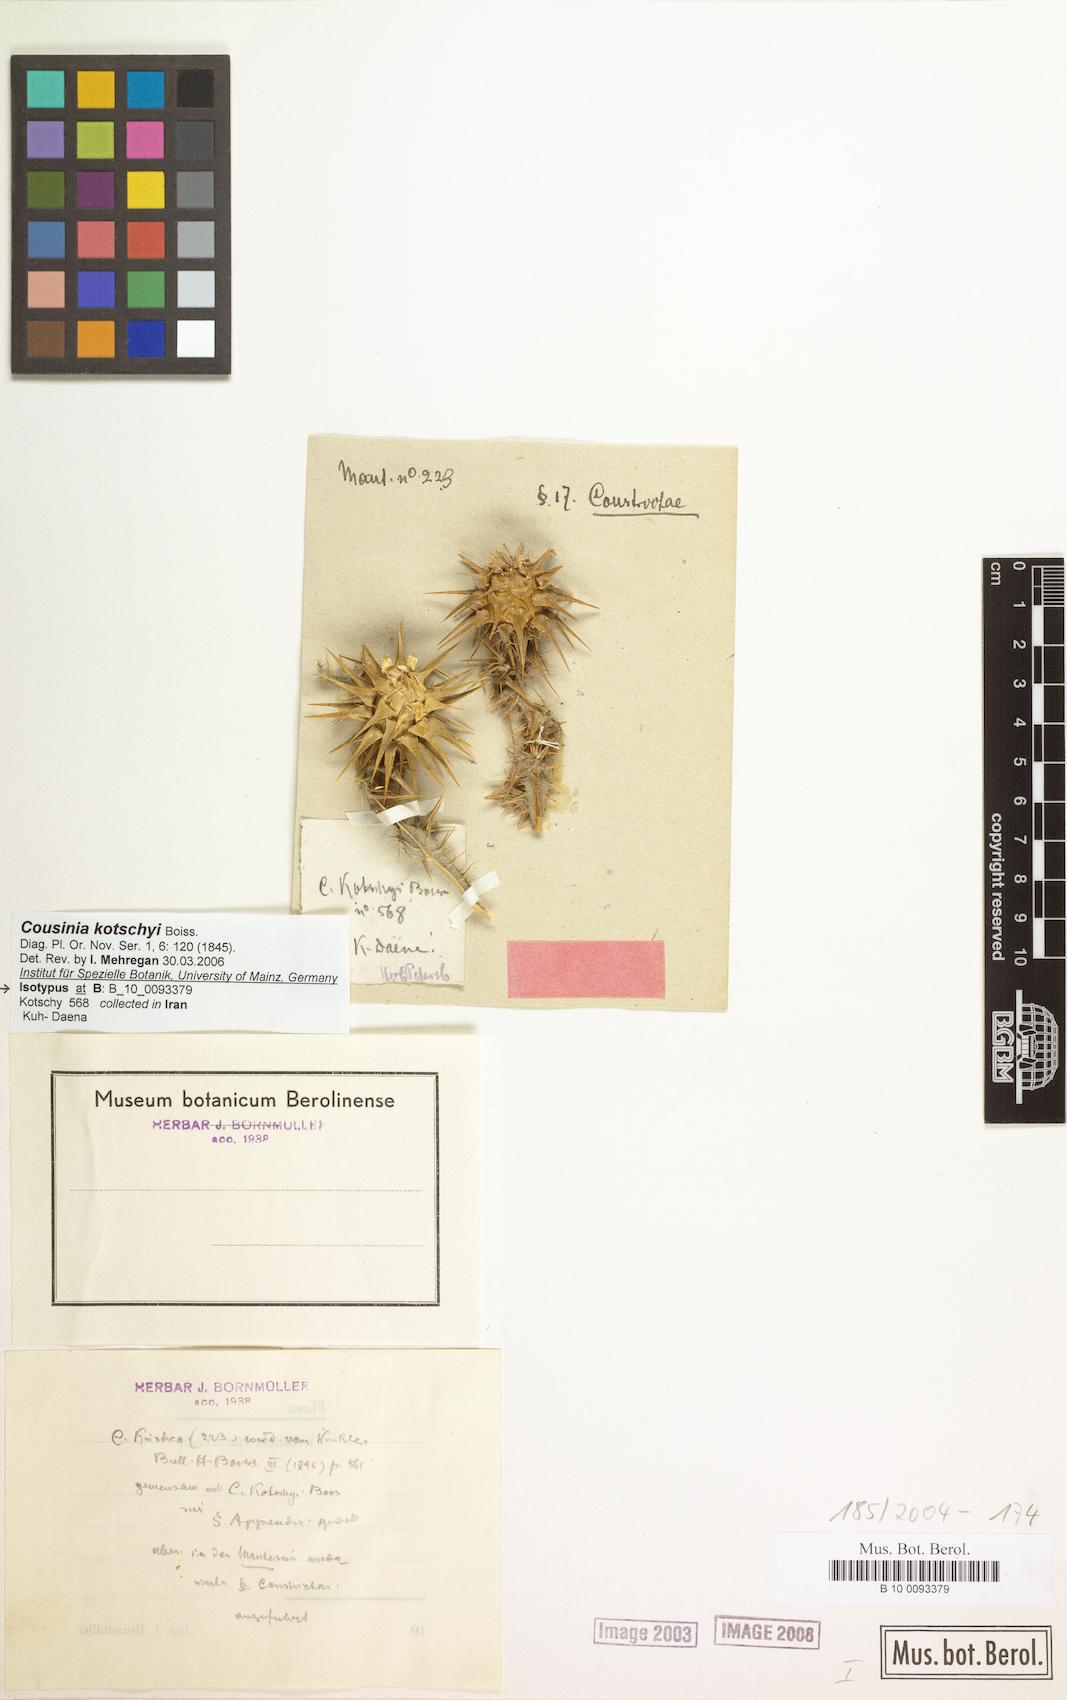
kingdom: Plantae
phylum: Tracheophyta
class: Magnoliopsida
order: Asterales
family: Asteraceae
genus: Cousinia
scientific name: Cousinia kotschyi
